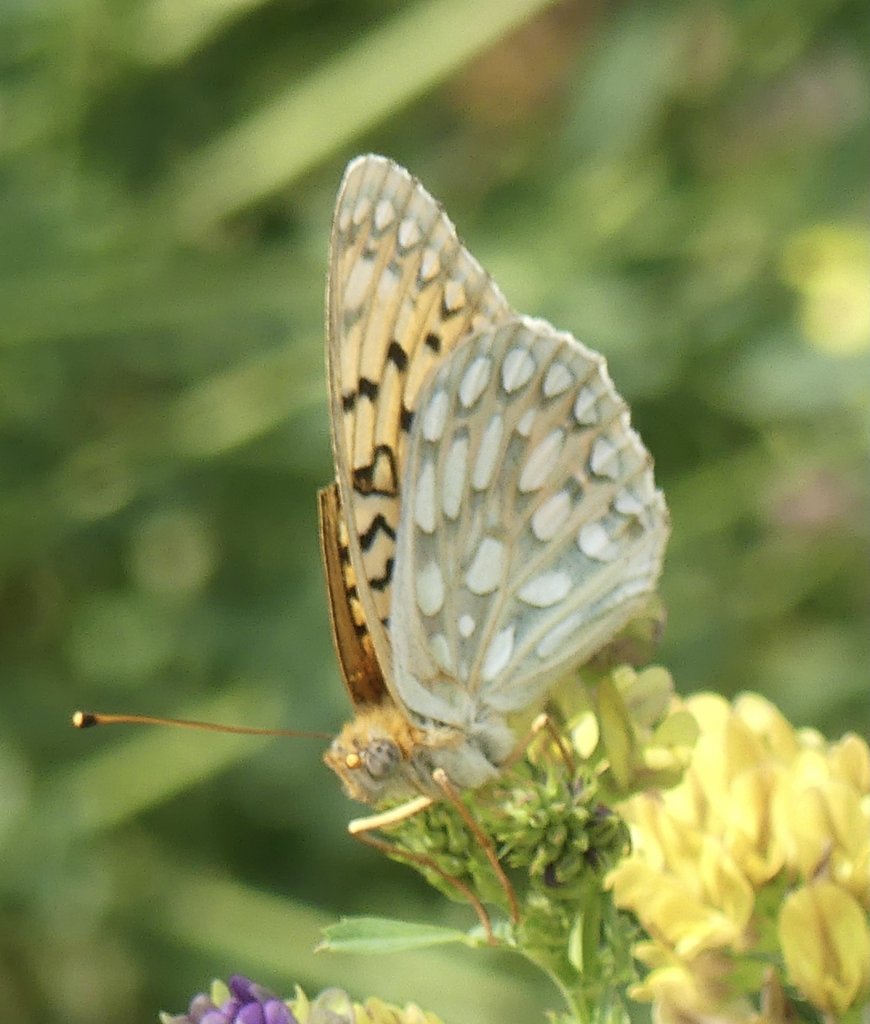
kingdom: Animalia
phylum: Arthropoda
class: Insecta
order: Lepidoptera
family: Nymphalidae
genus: Speyeria
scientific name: Speyeria callippe
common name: Callippe Fritillary
